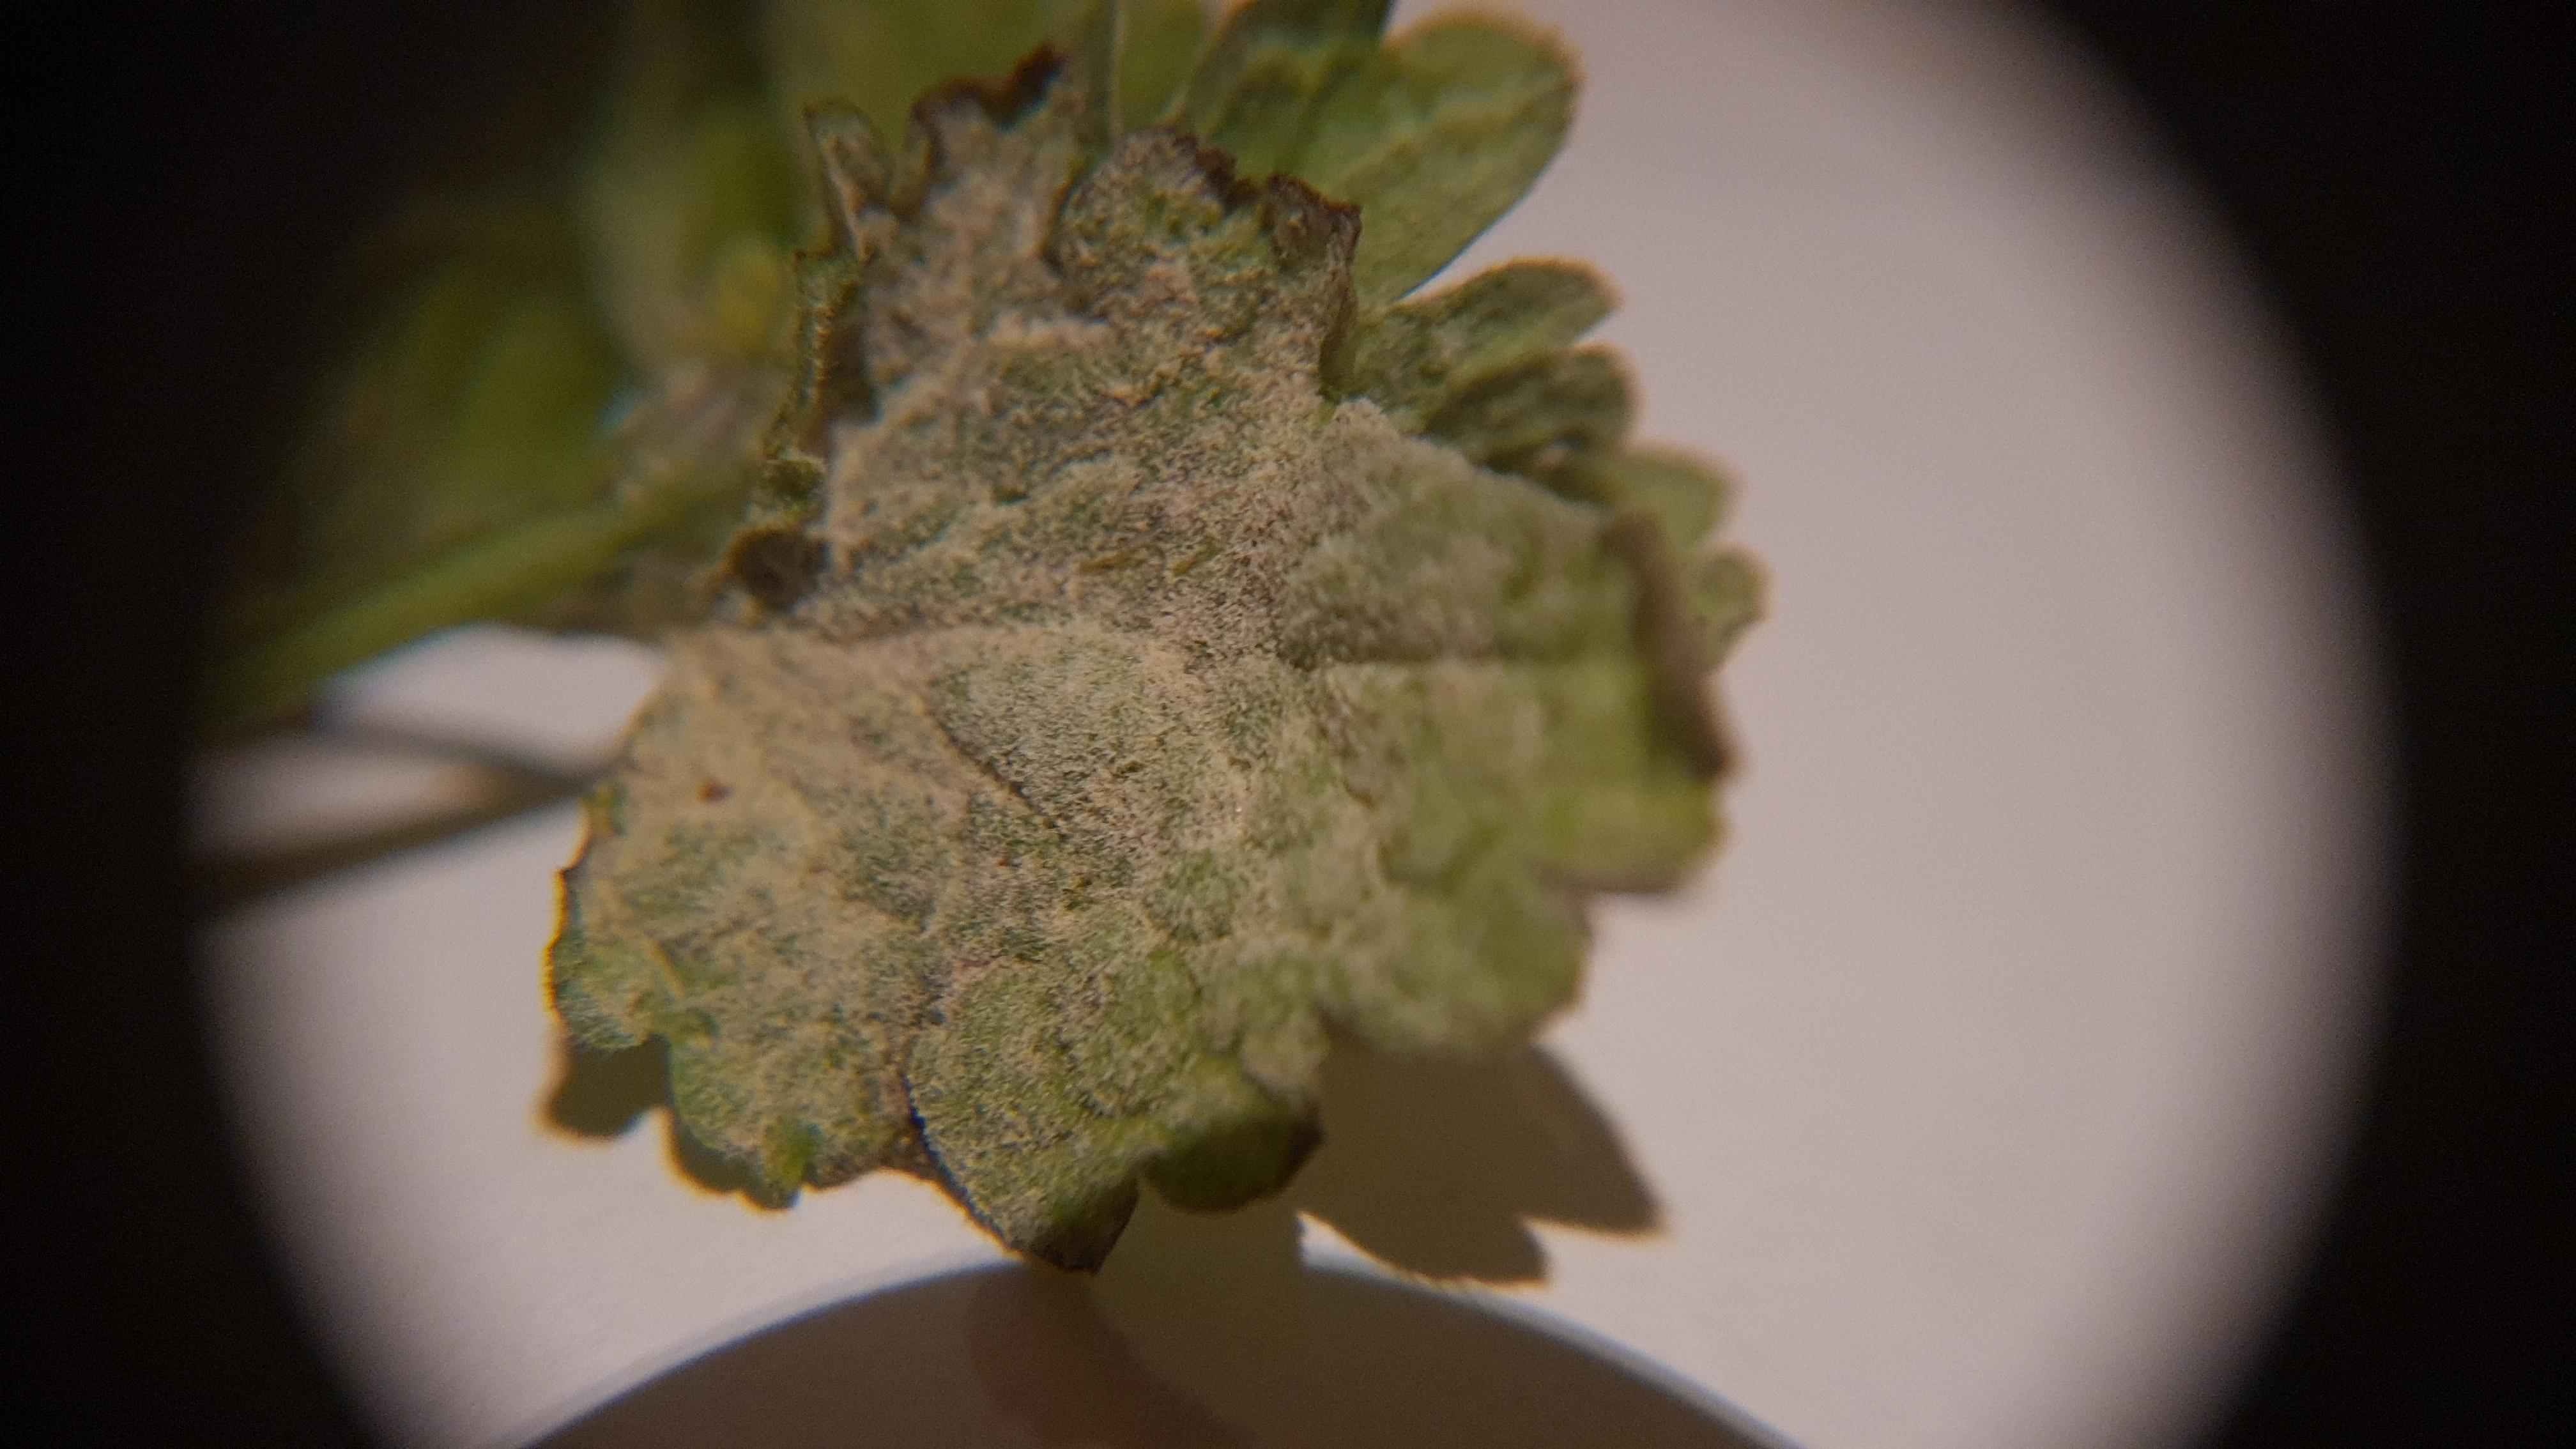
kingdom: Fungi
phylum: Ascomycota
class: Leotiomycetes
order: Helotiales
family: Erysiphaceae
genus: Neoerysiphe
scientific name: Neoerysiphe galeopsidis
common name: Mint mildew
